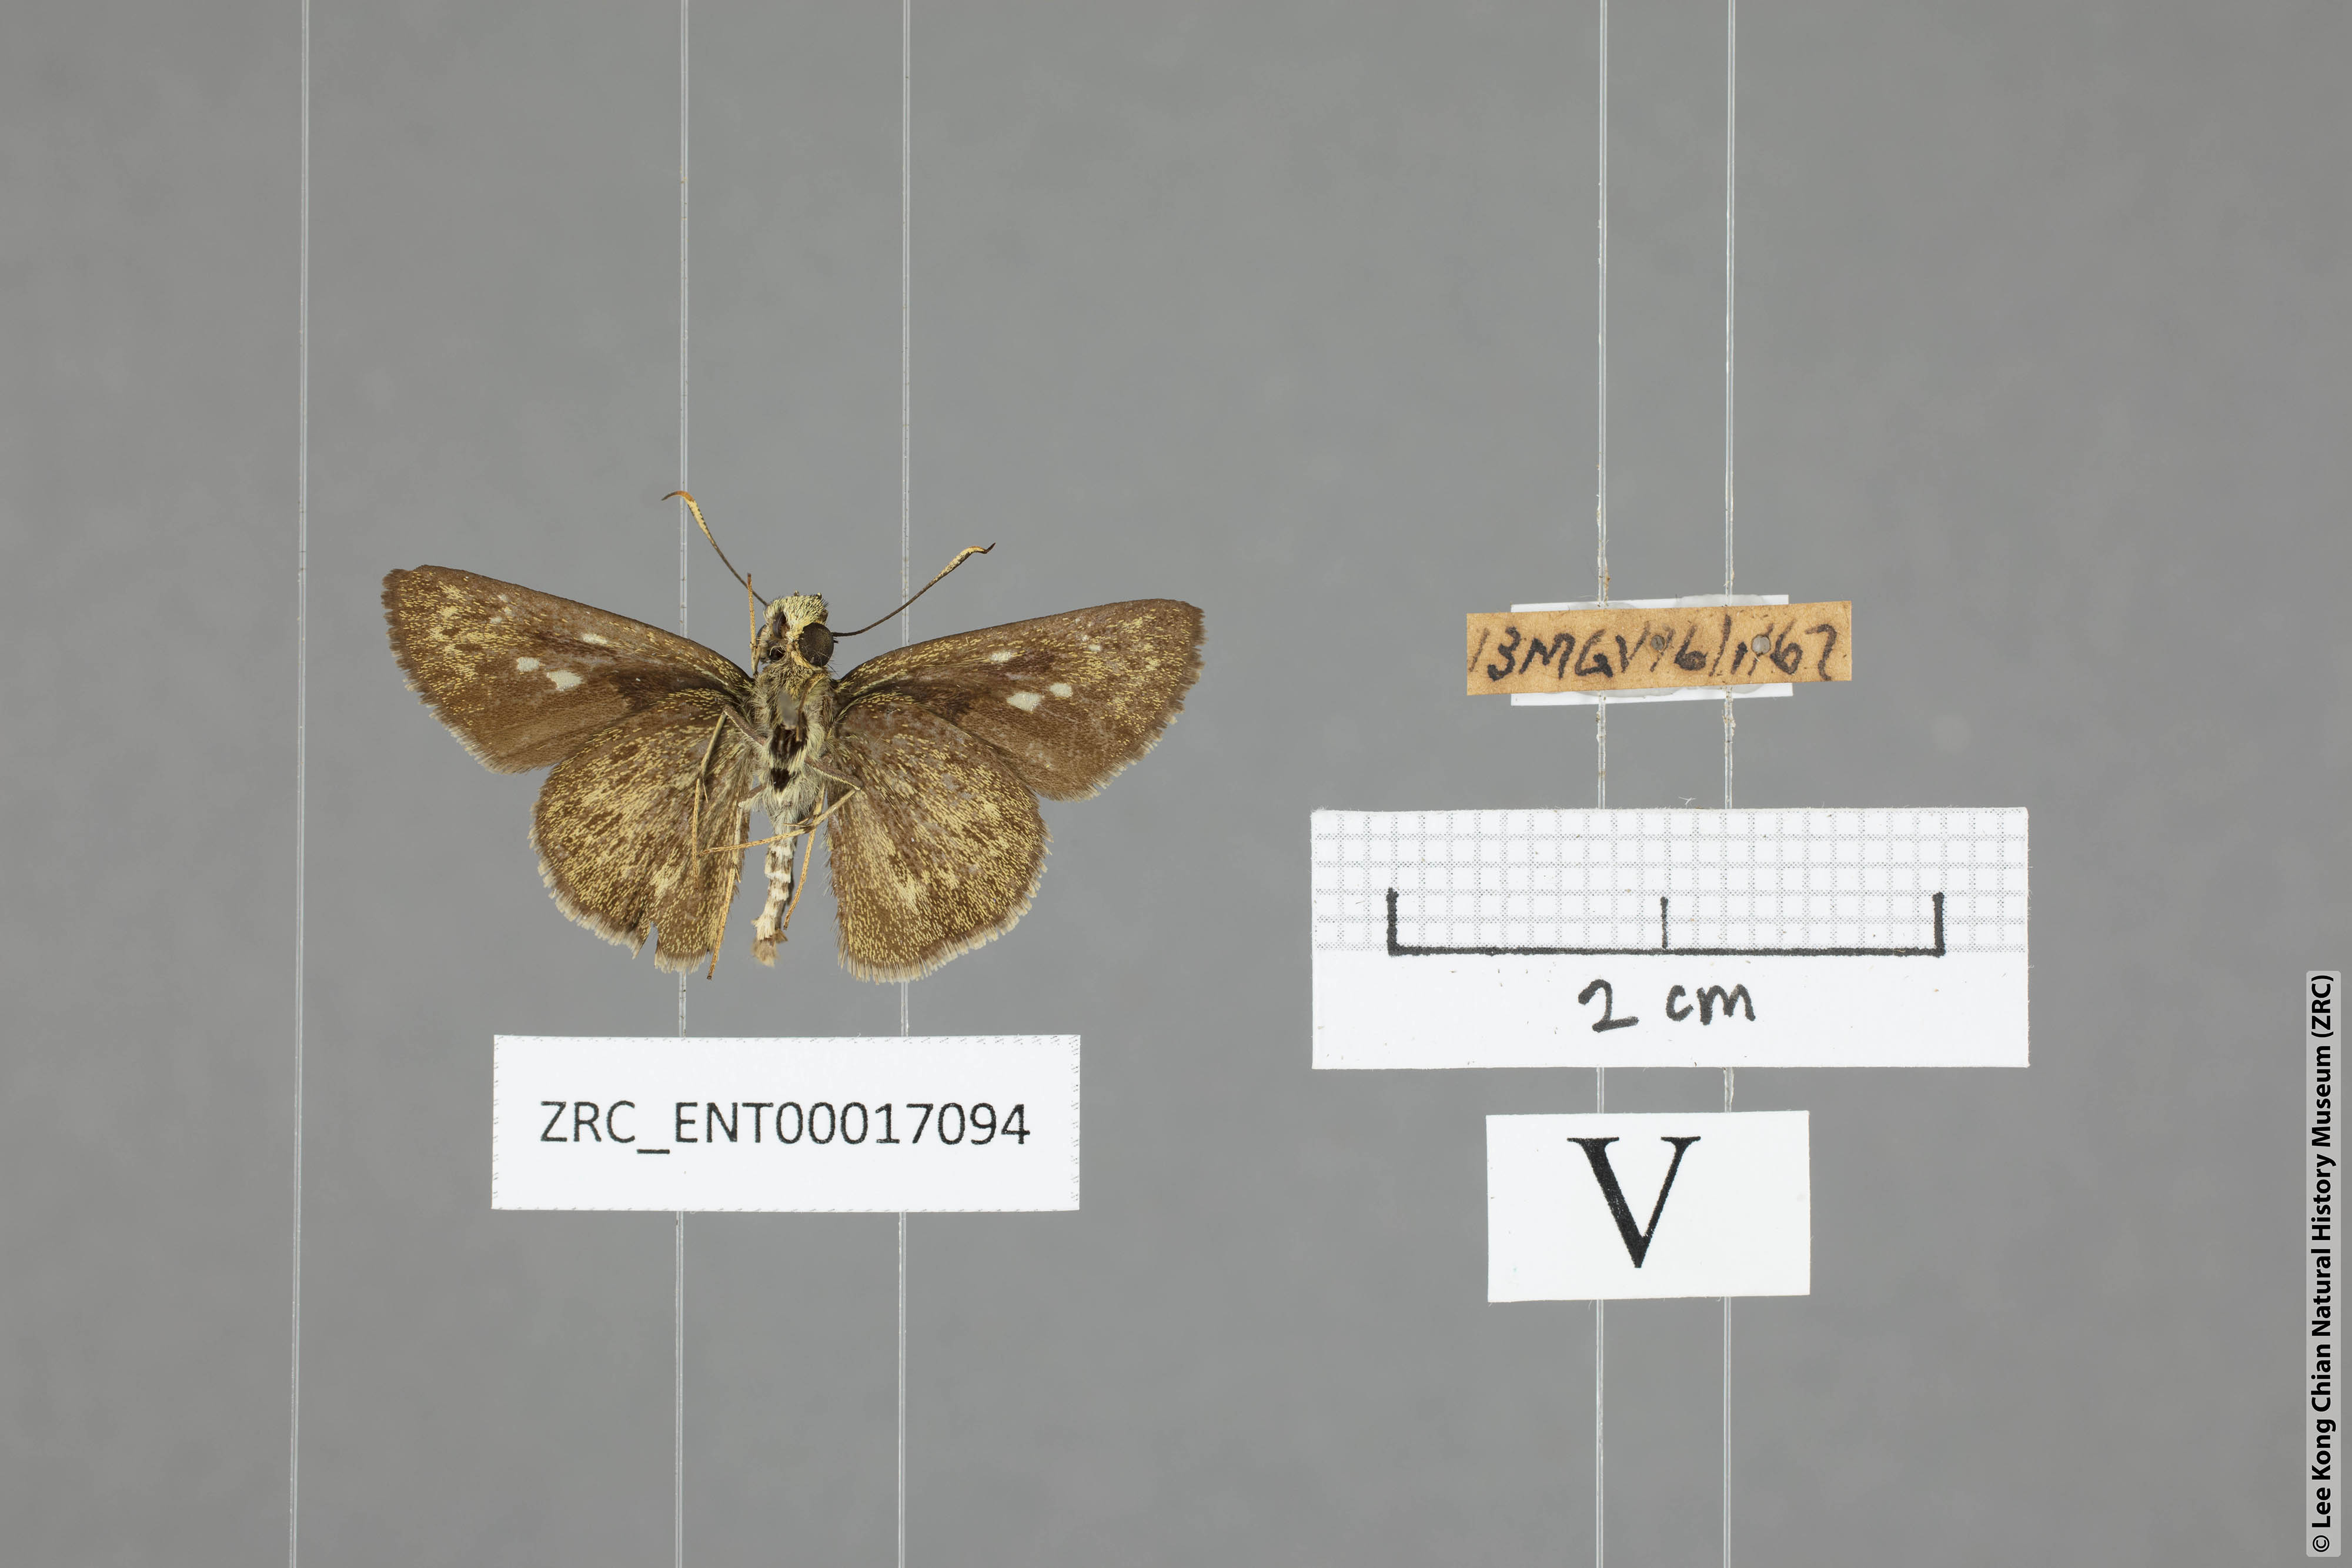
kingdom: Animalia
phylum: Arthropoda
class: Insecta
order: Lepidoptera
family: Hesperiidae
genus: Halpe
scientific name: Halpe wantona
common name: Swinhoe's ace
